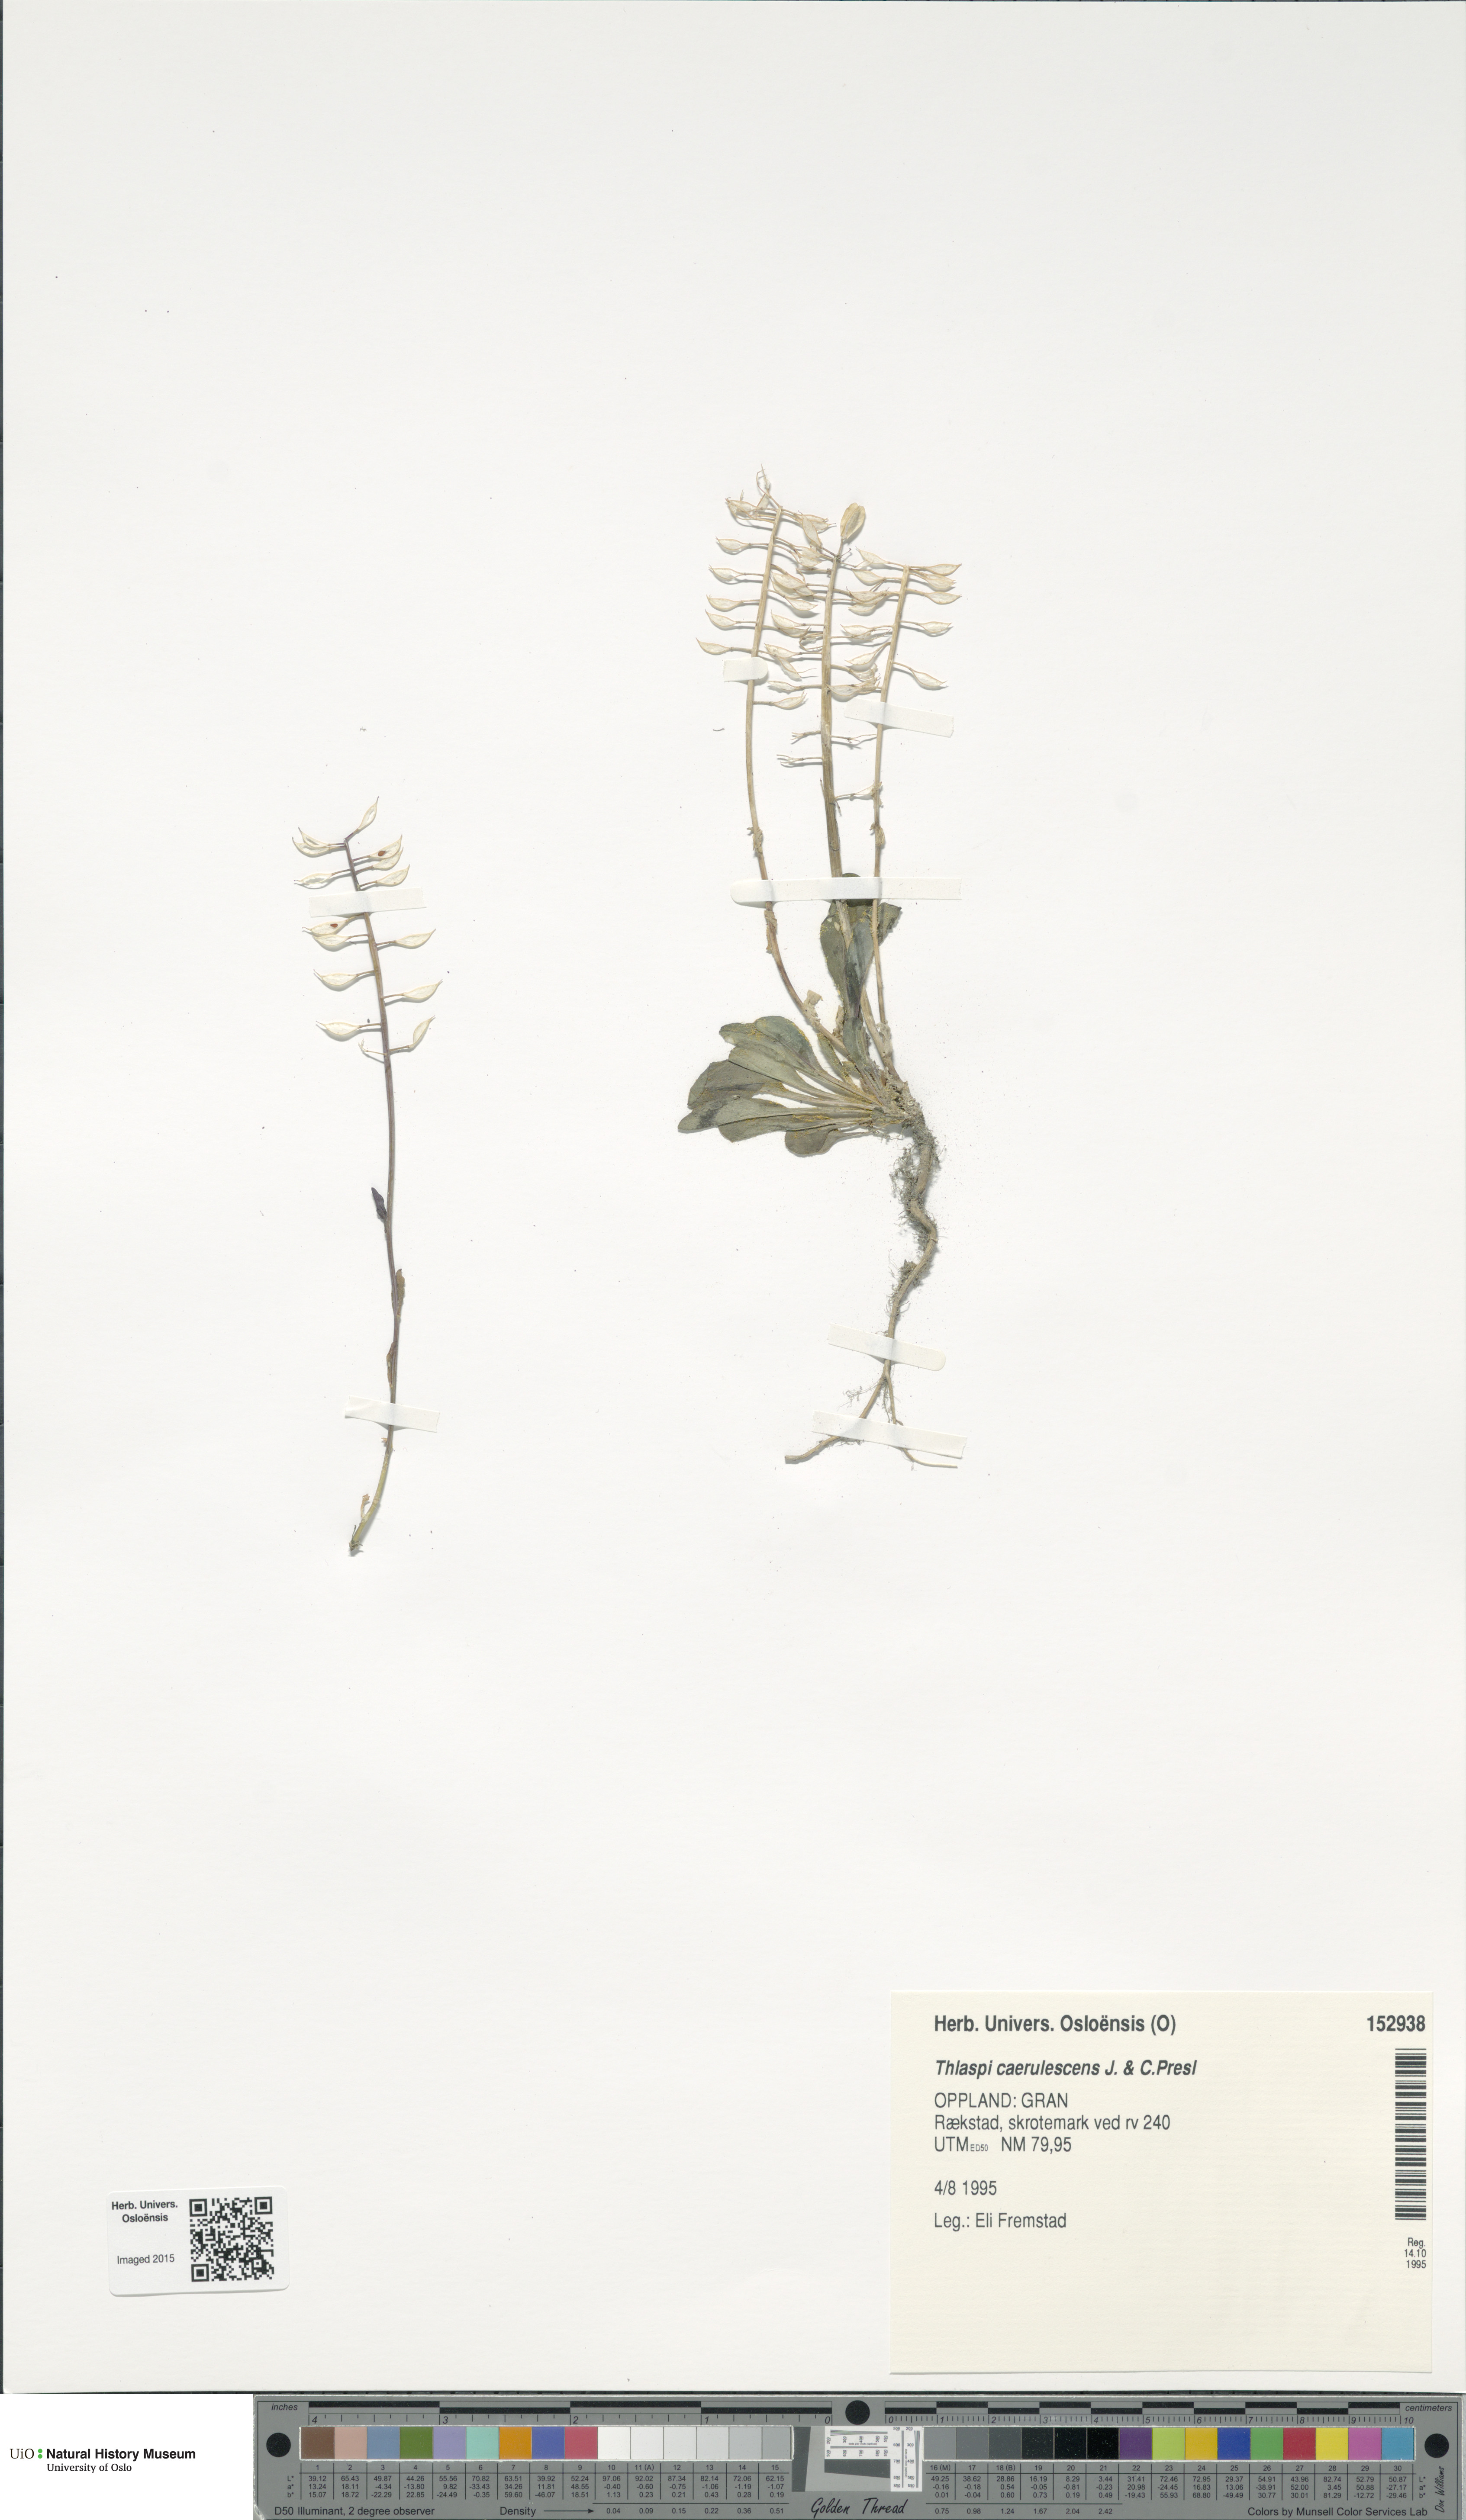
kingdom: Plantae
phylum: Tracheophyta
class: Magnoliopsida
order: Brassicales
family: Brassicaceae
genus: Noccaea
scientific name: Noccaea caerulescens
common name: Alpine pennycress
